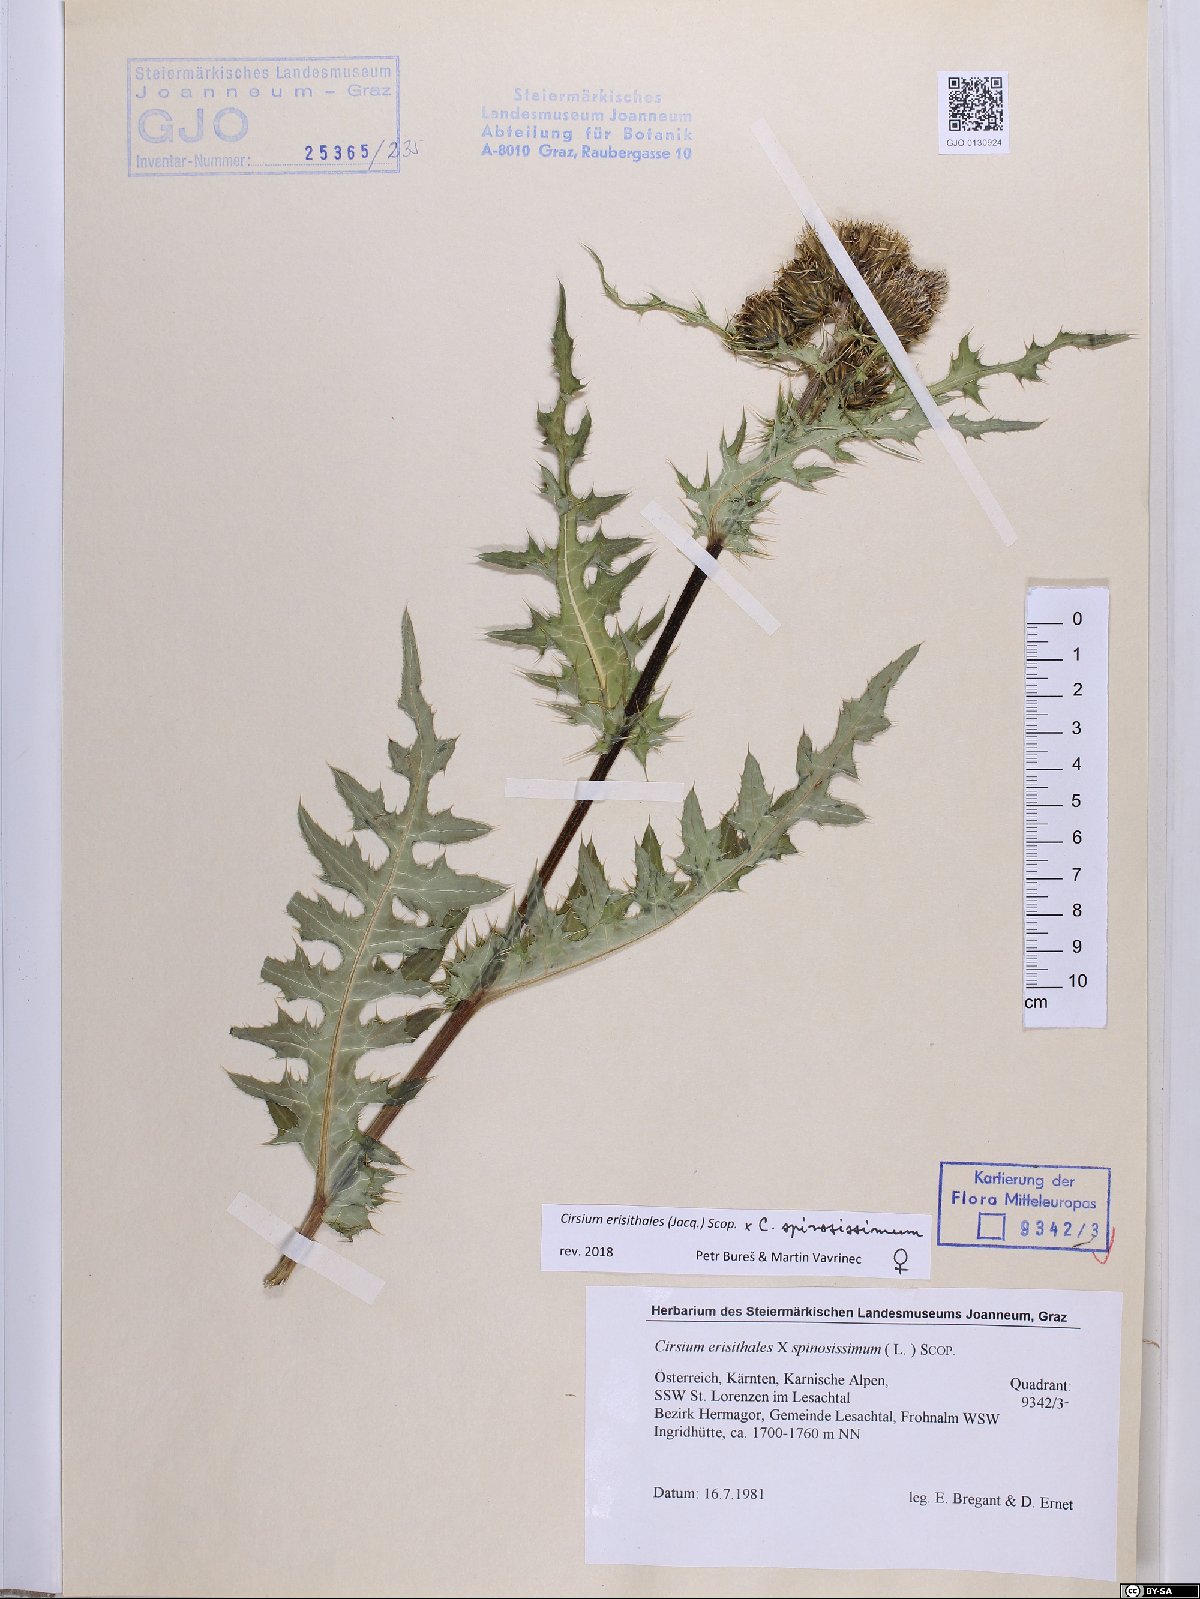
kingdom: Plantae
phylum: Tracheophyta
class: Magnoliopsida
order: Asterales
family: Asteraceae
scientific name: Asteraceae
